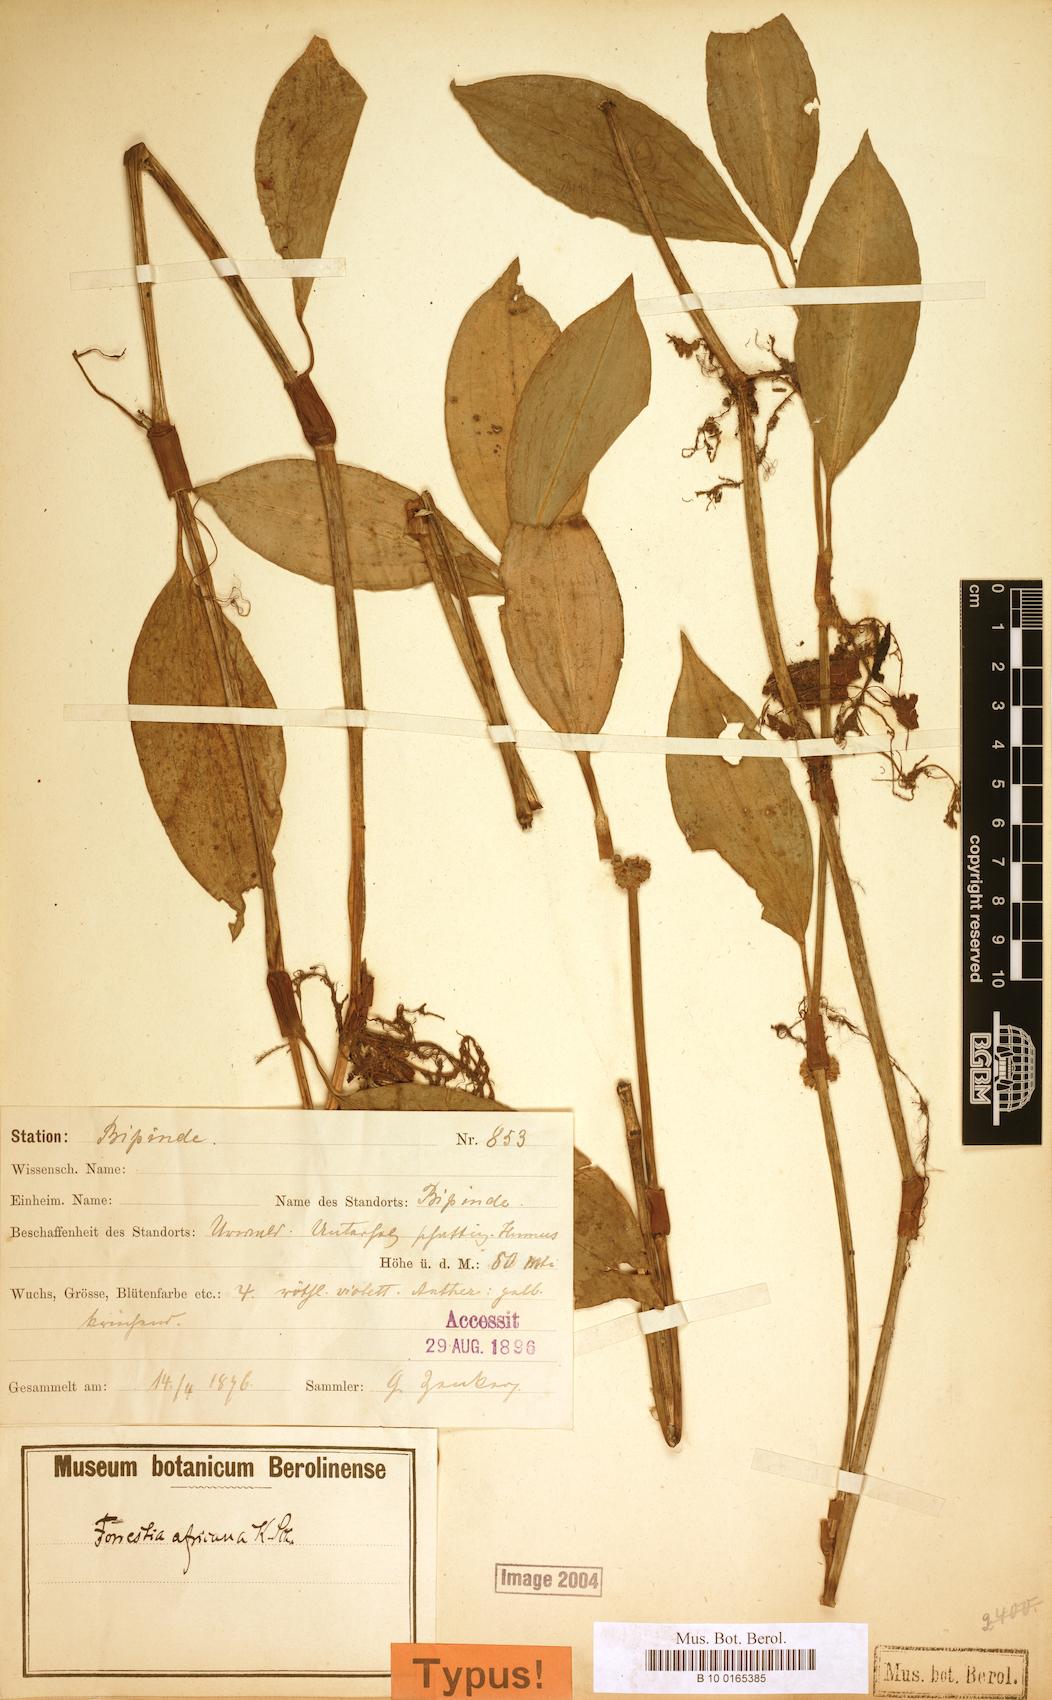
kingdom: Plantae
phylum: Tracheophyta
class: Liliopsida
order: Commelinales
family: Commelinaceae
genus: Amischotolype
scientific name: Amischotolype tenuis
